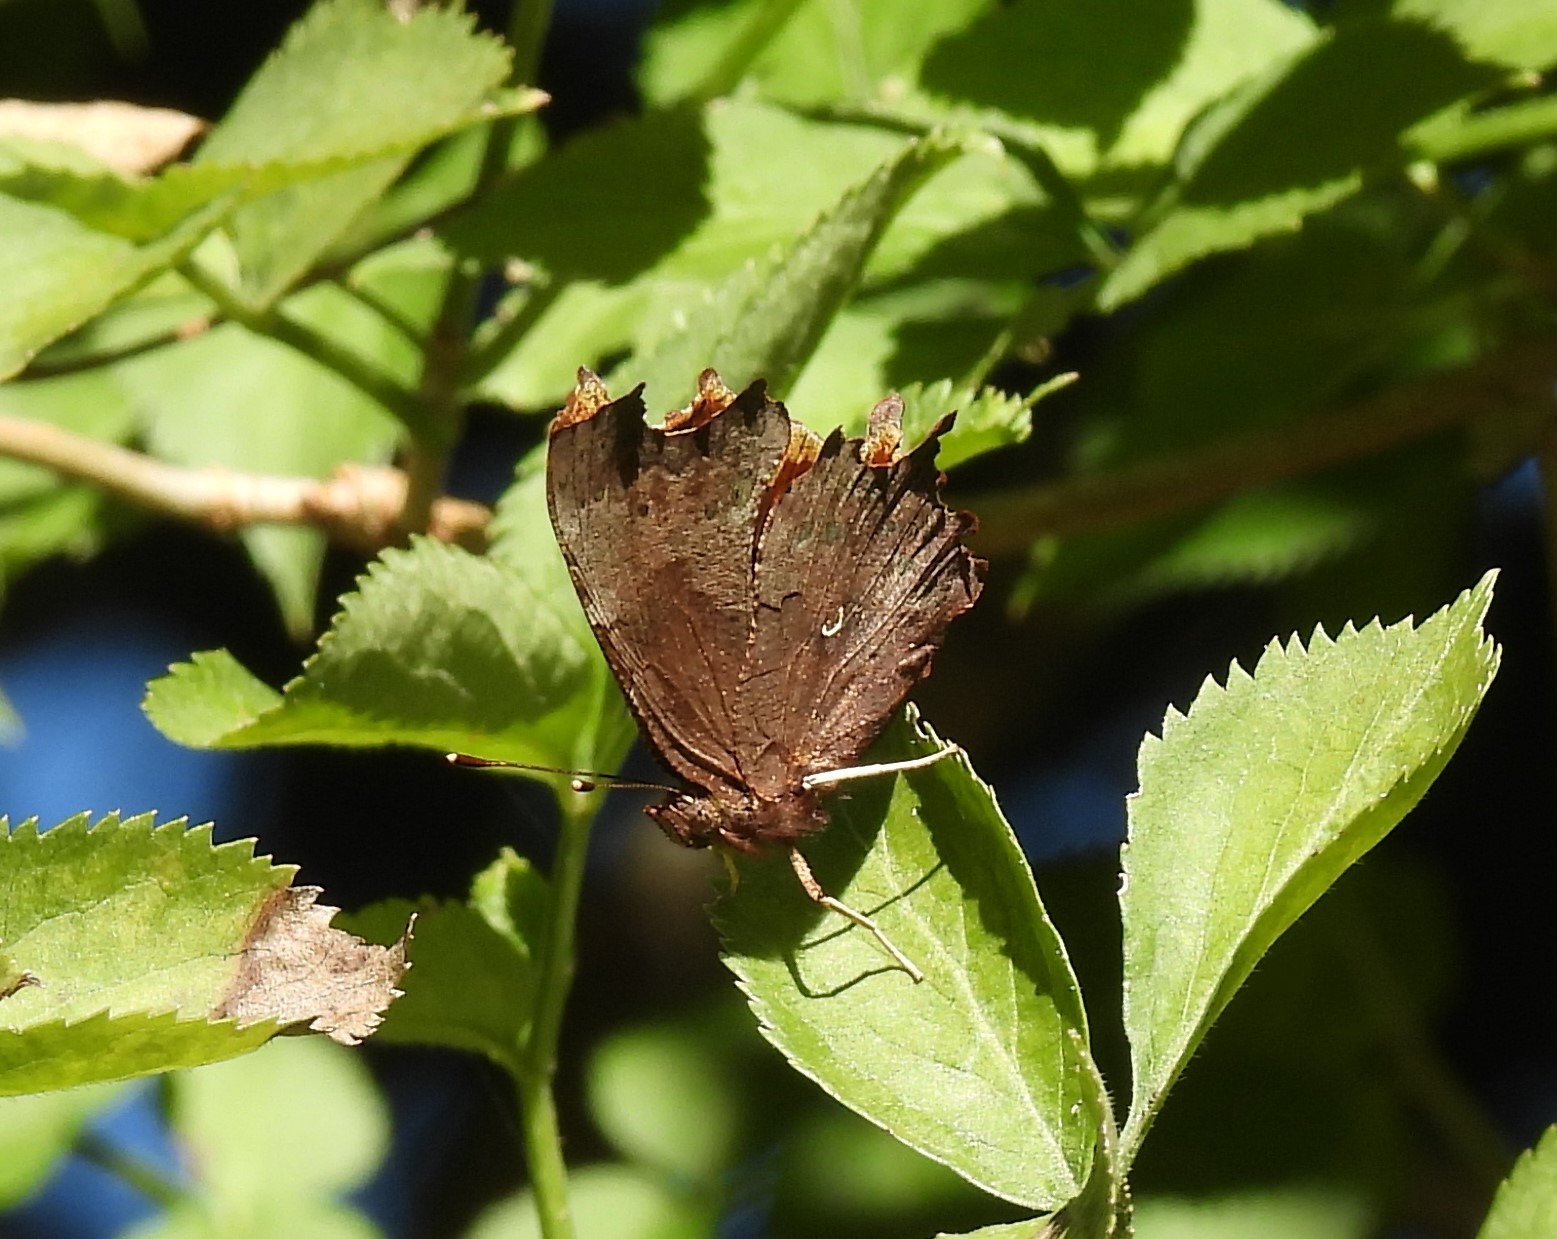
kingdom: Animalia
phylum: Arthropoda
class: Insecta
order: Lepidoptera
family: Nymphalidae
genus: Polygonia
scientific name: Polygonia c-album
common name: Det hvide C
